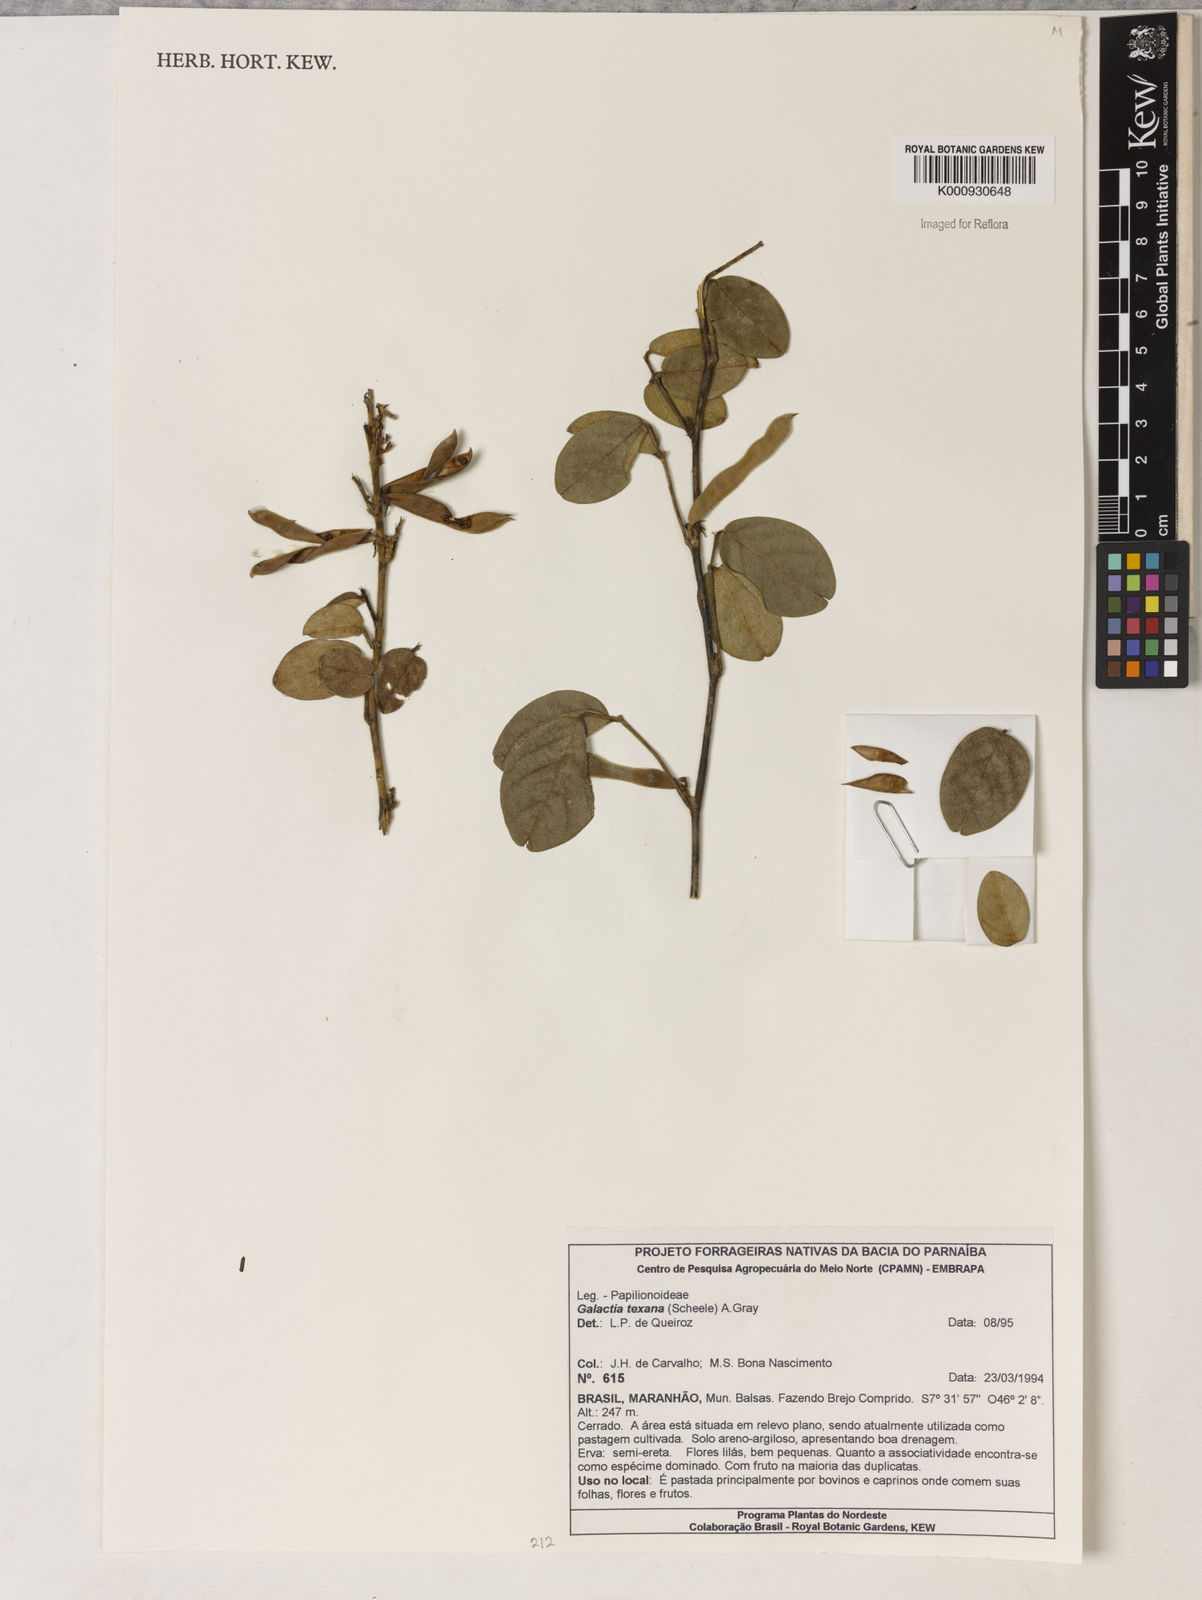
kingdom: Plantae
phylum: Tracheophyta
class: Magnoliopsida
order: Fabales
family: Fabaceae
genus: Galactia
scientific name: Galactia texana
